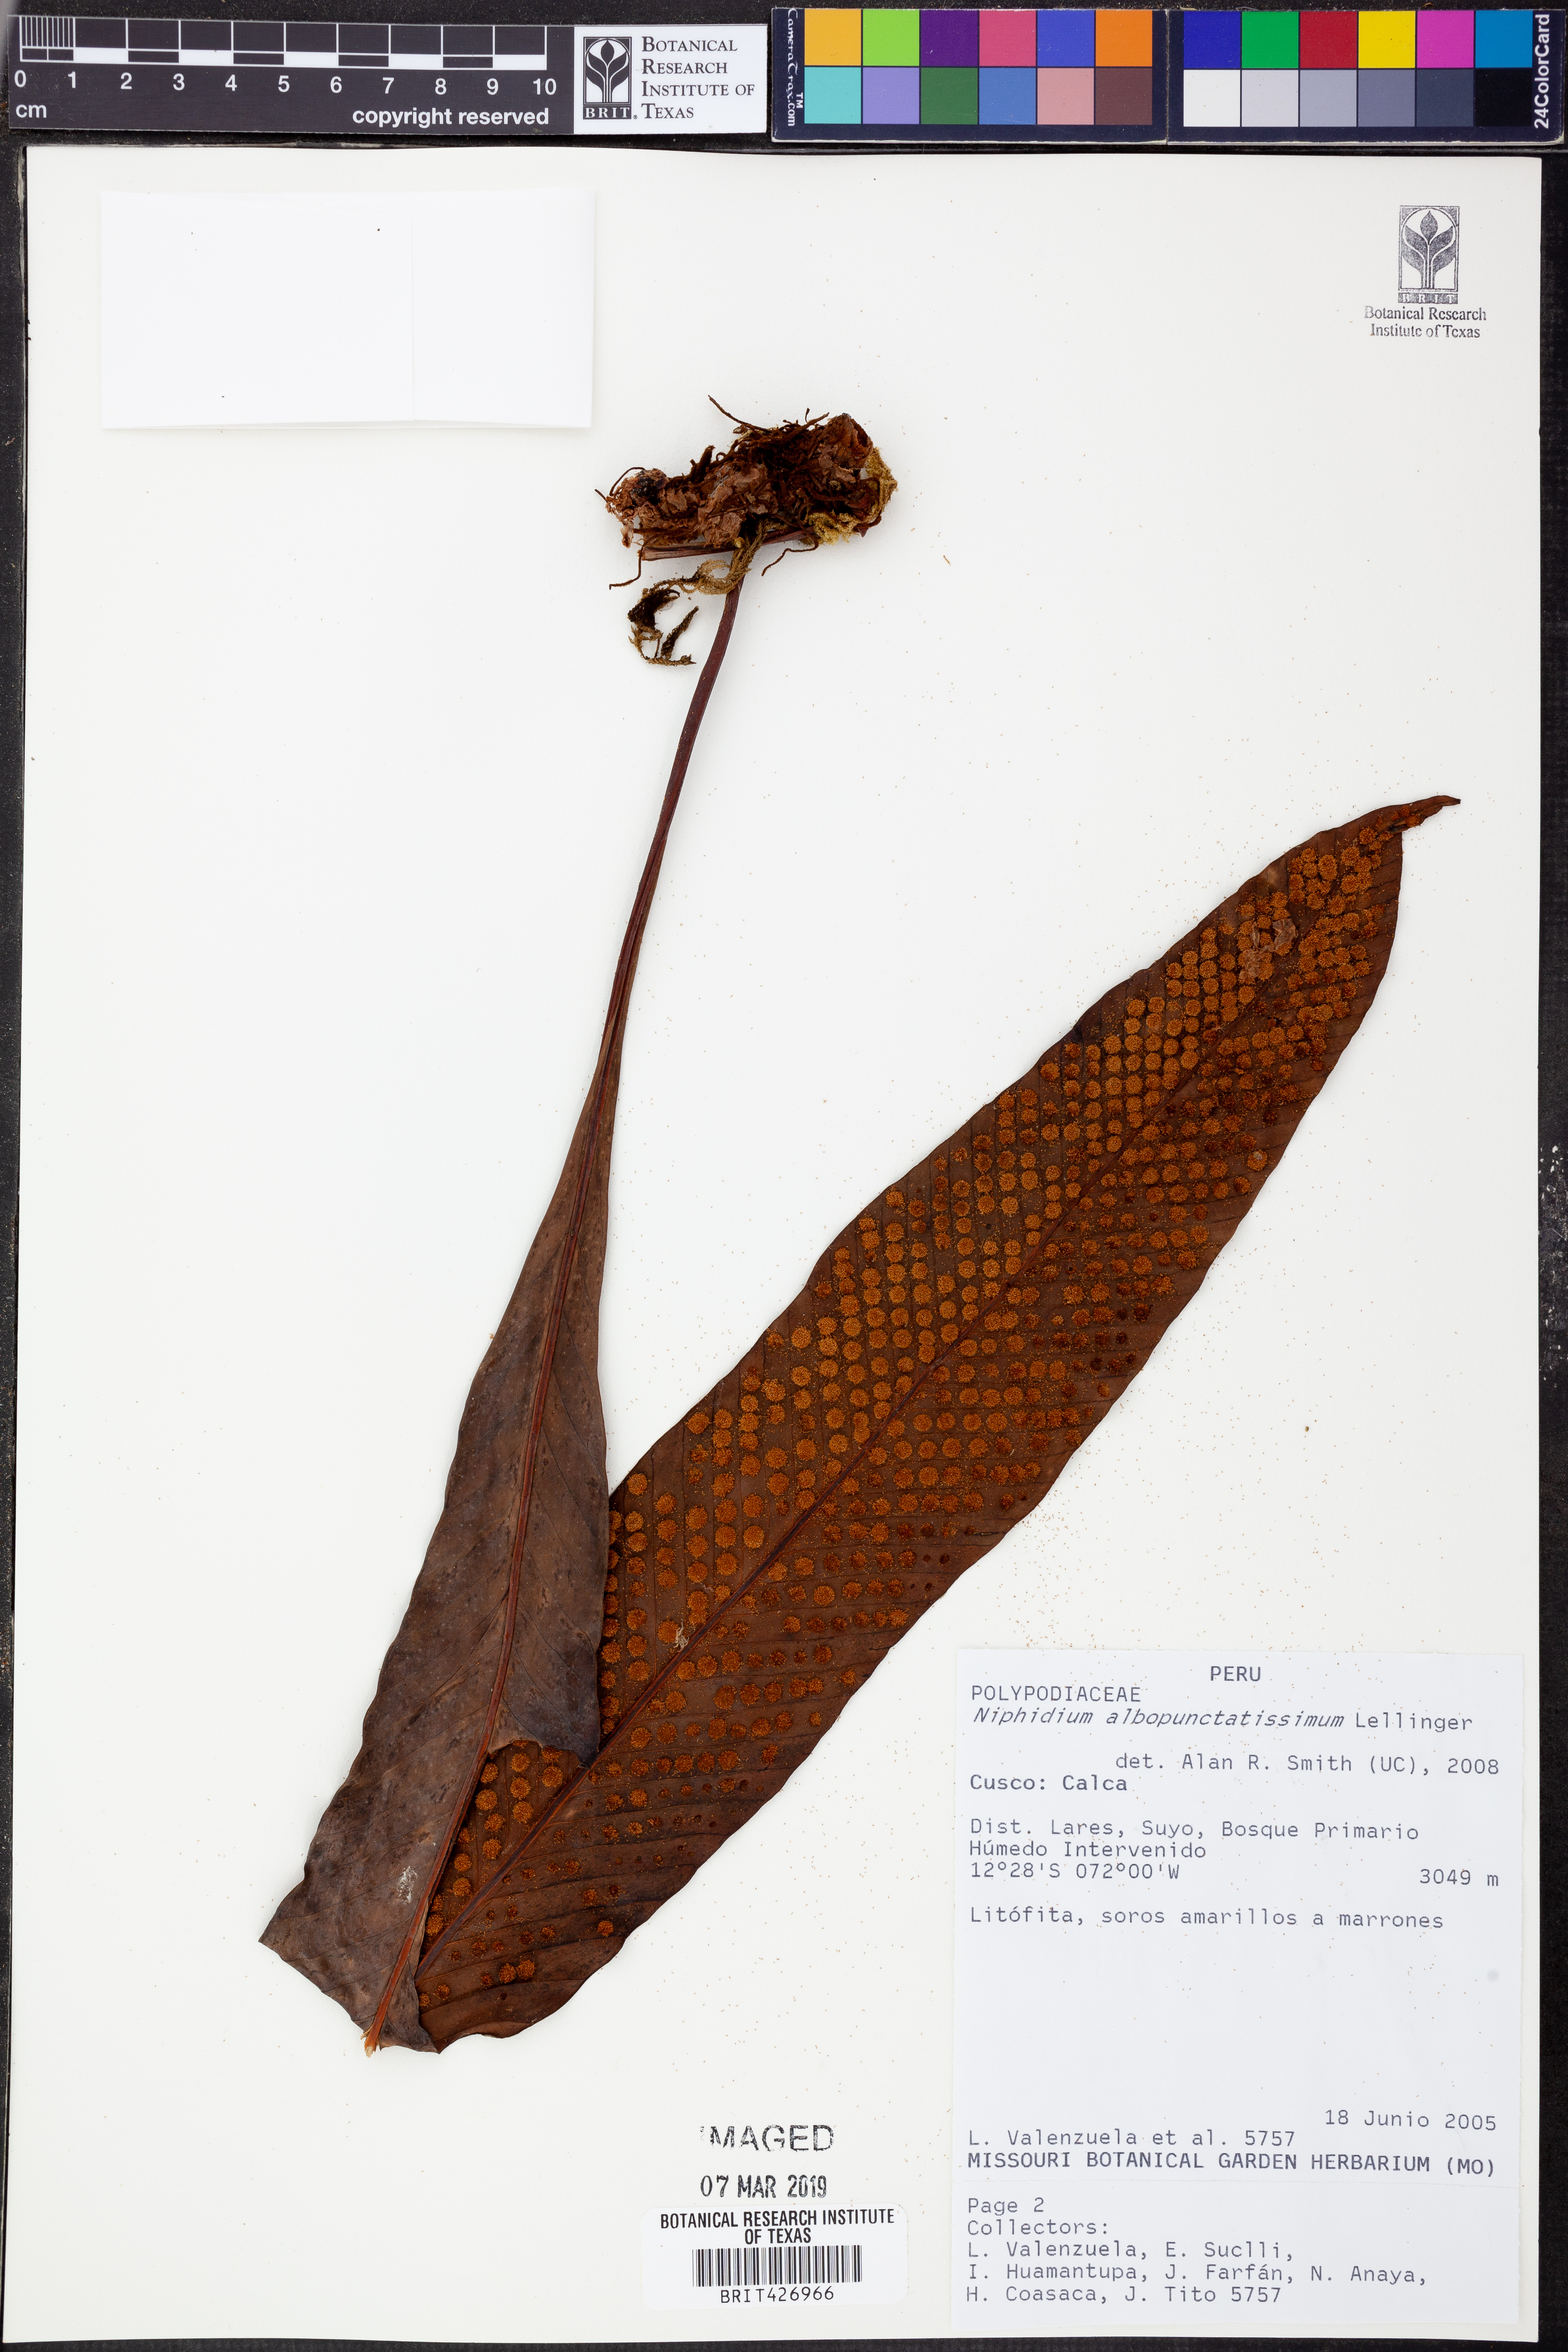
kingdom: Plantae
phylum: Tracheophyta
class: Polypodiopsida
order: Polypodiales
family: Polypodiaceae
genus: Niphidium
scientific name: Niphidium albopunctatissimum
